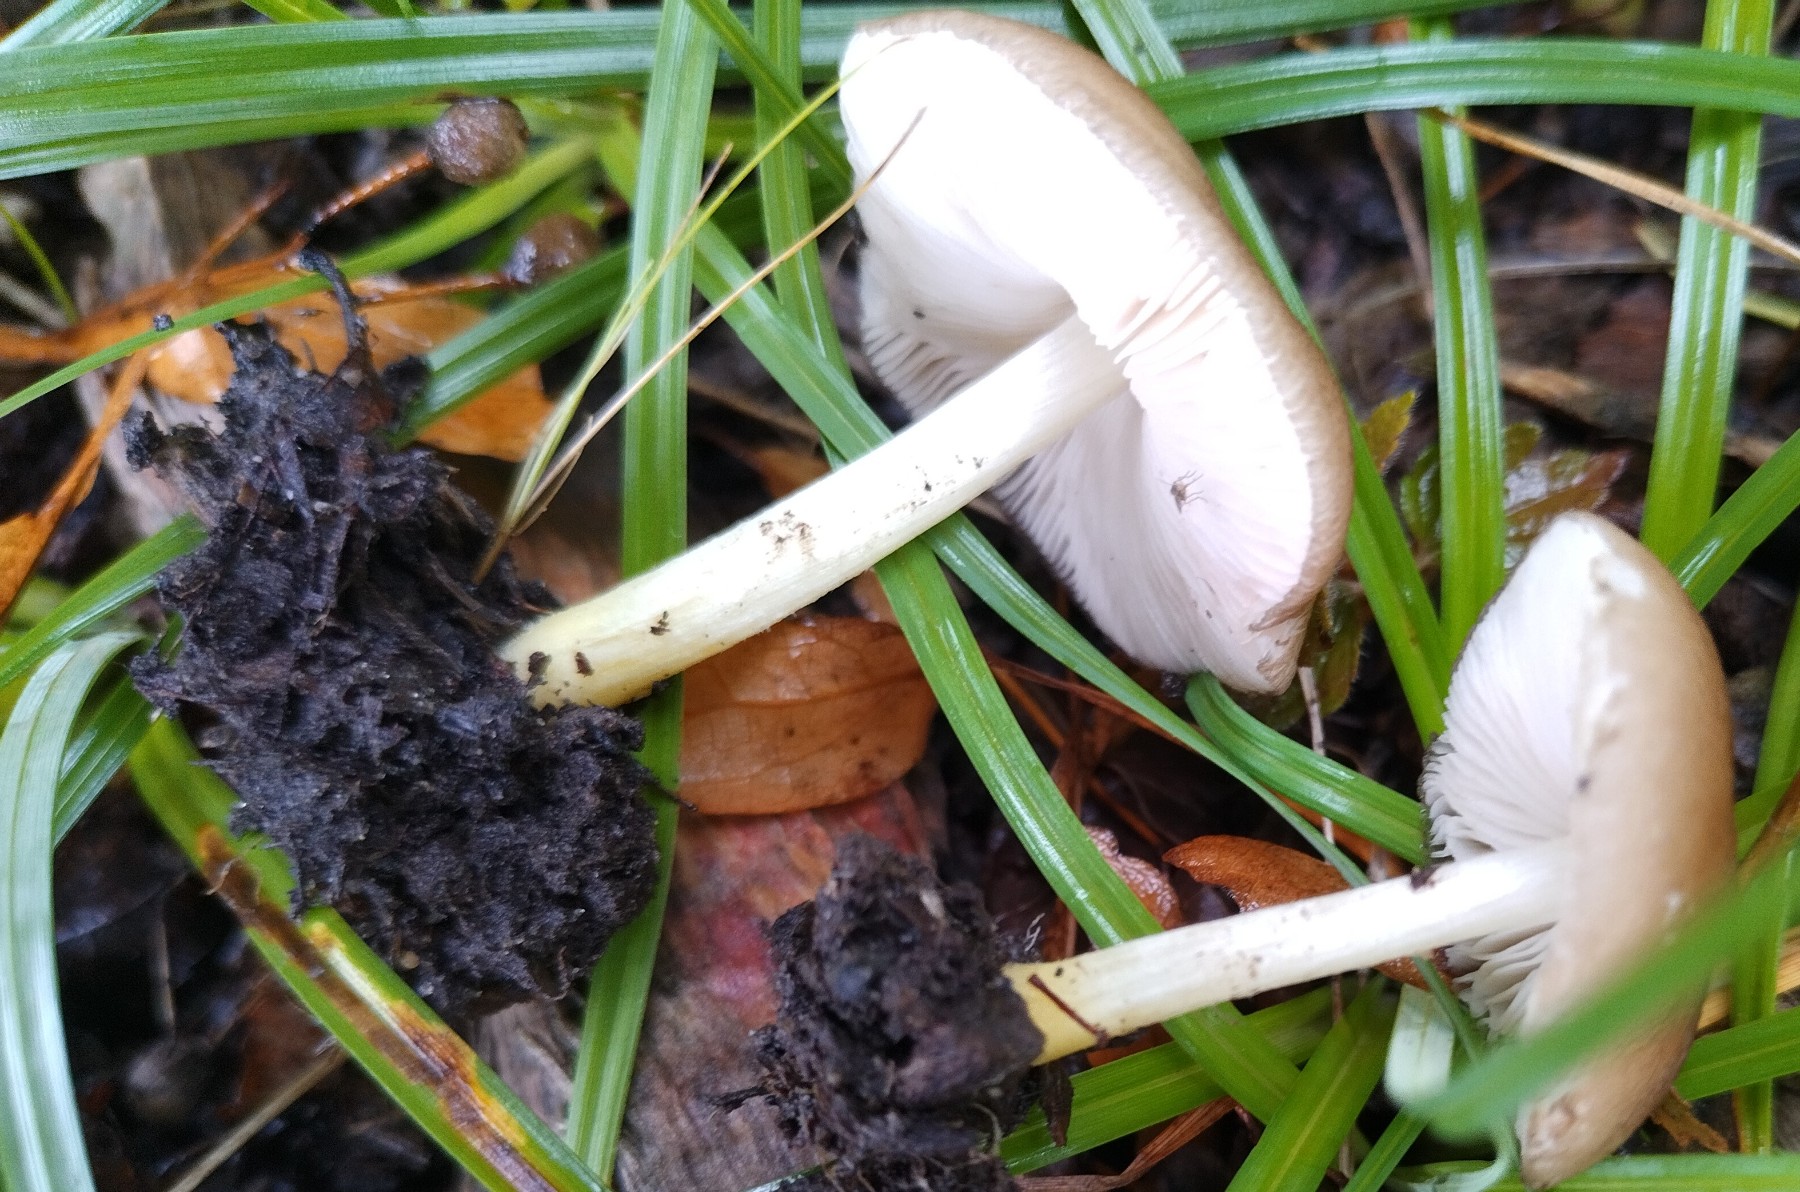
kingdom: Fungi
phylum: Basidiomycota
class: Agaricomycetes
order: Agaricales
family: Pluteaceae
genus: Pluteus
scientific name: Pluteus romellii
